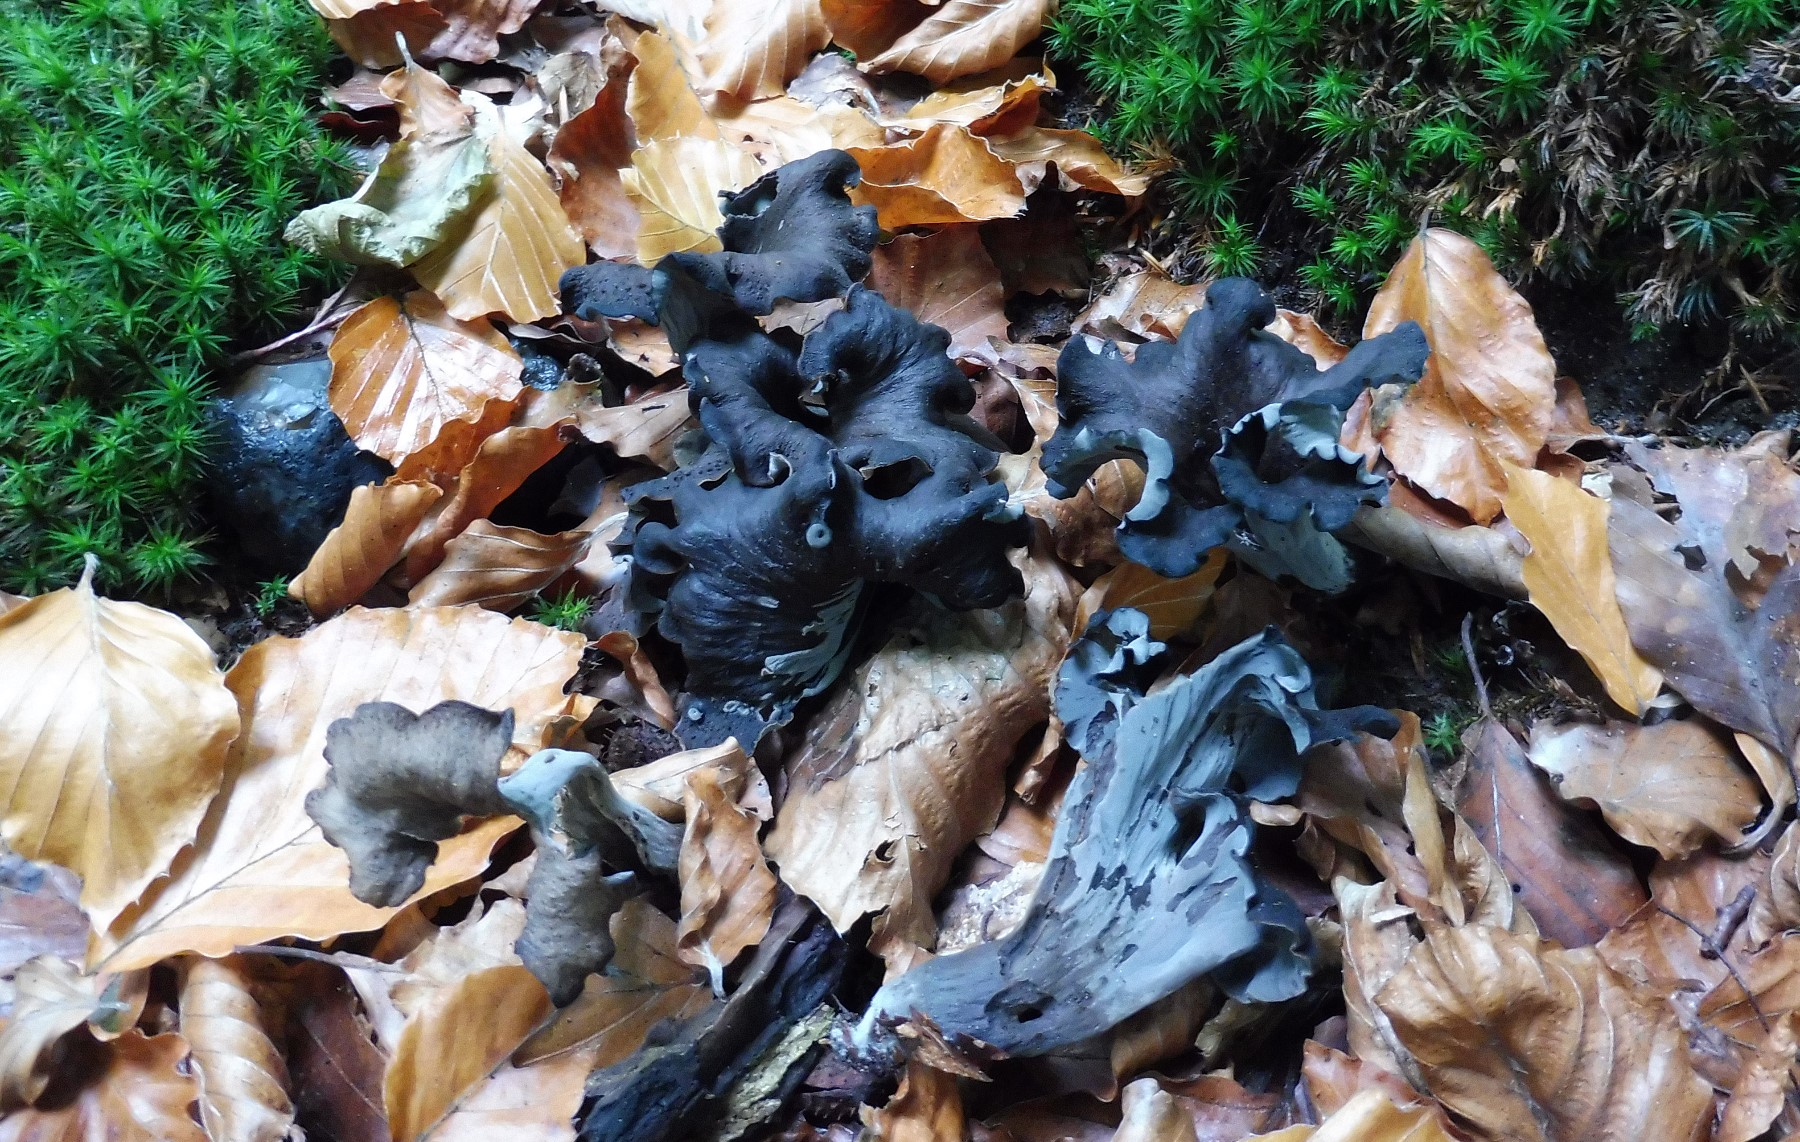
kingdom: Fungi
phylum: Basidiomycota
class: Agaricomycetes
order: Cantharellales
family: Hydnaceae
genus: Craterellus
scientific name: Craterellus cornucopioides
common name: trompetsvamp
